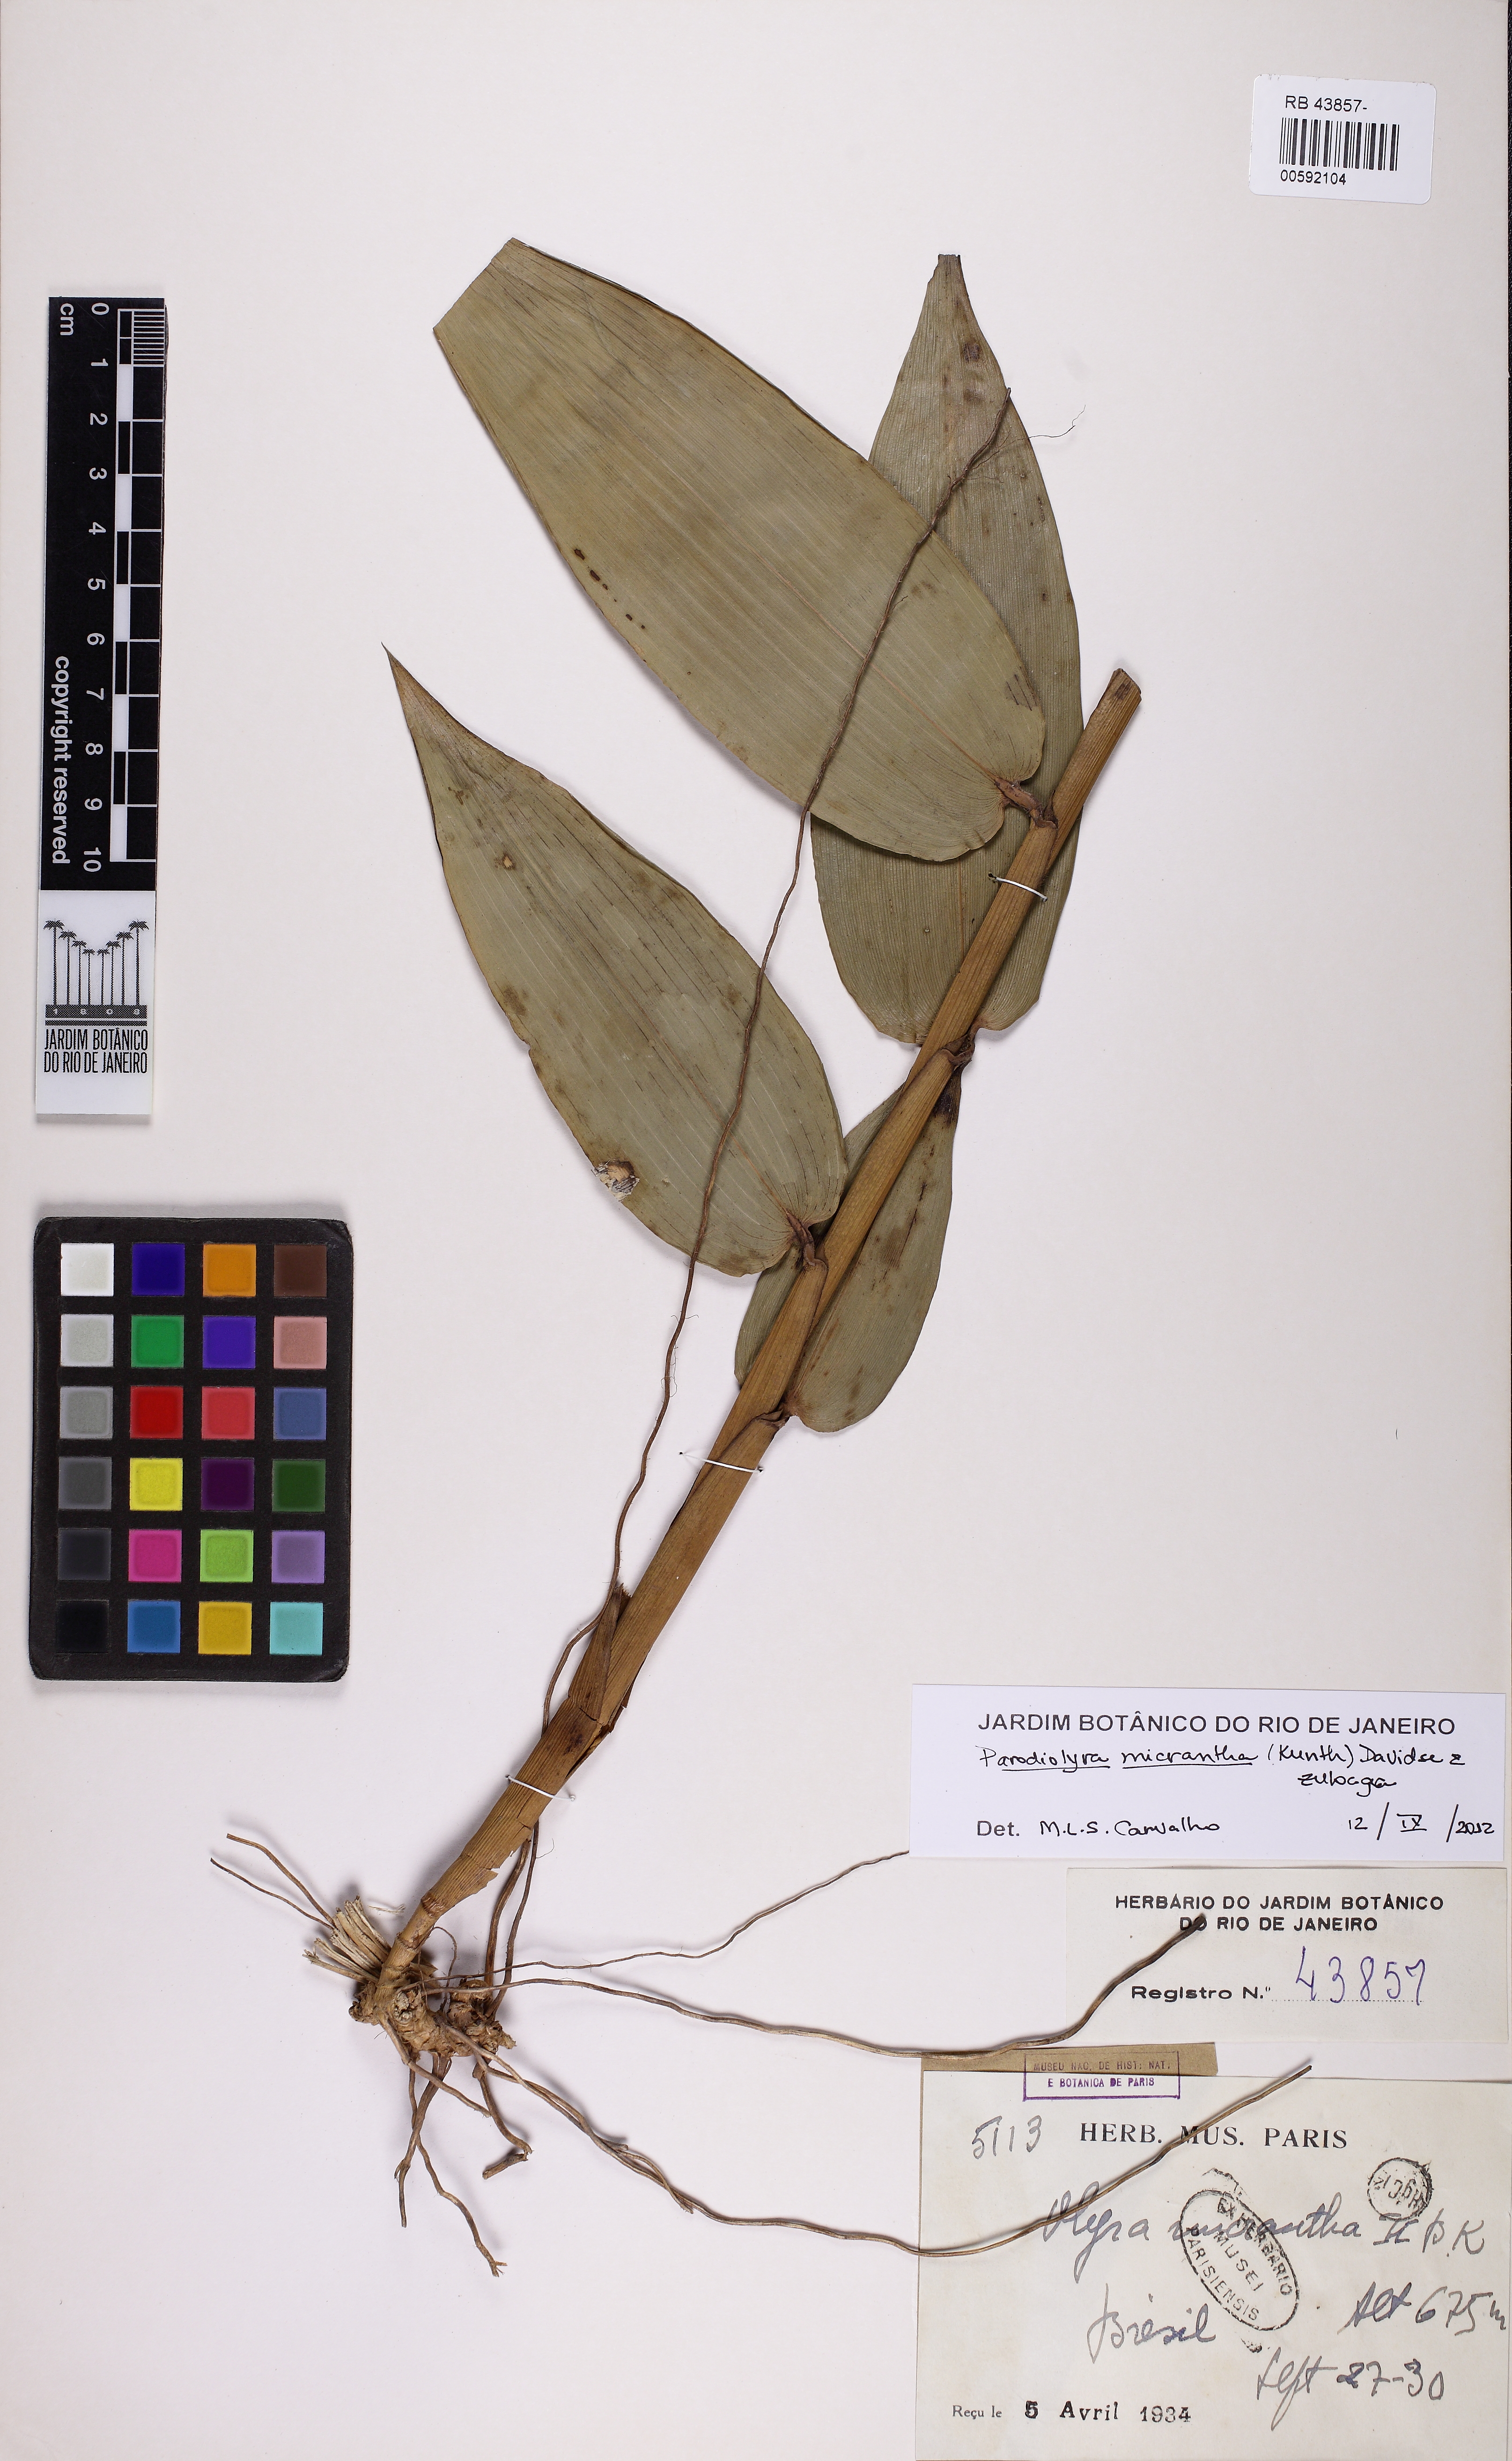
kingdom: Plantae
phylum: Tracheophyta
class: Liliopsida
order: Poales
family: Poaceae
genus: Taquara
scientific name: Taquara micrantha
